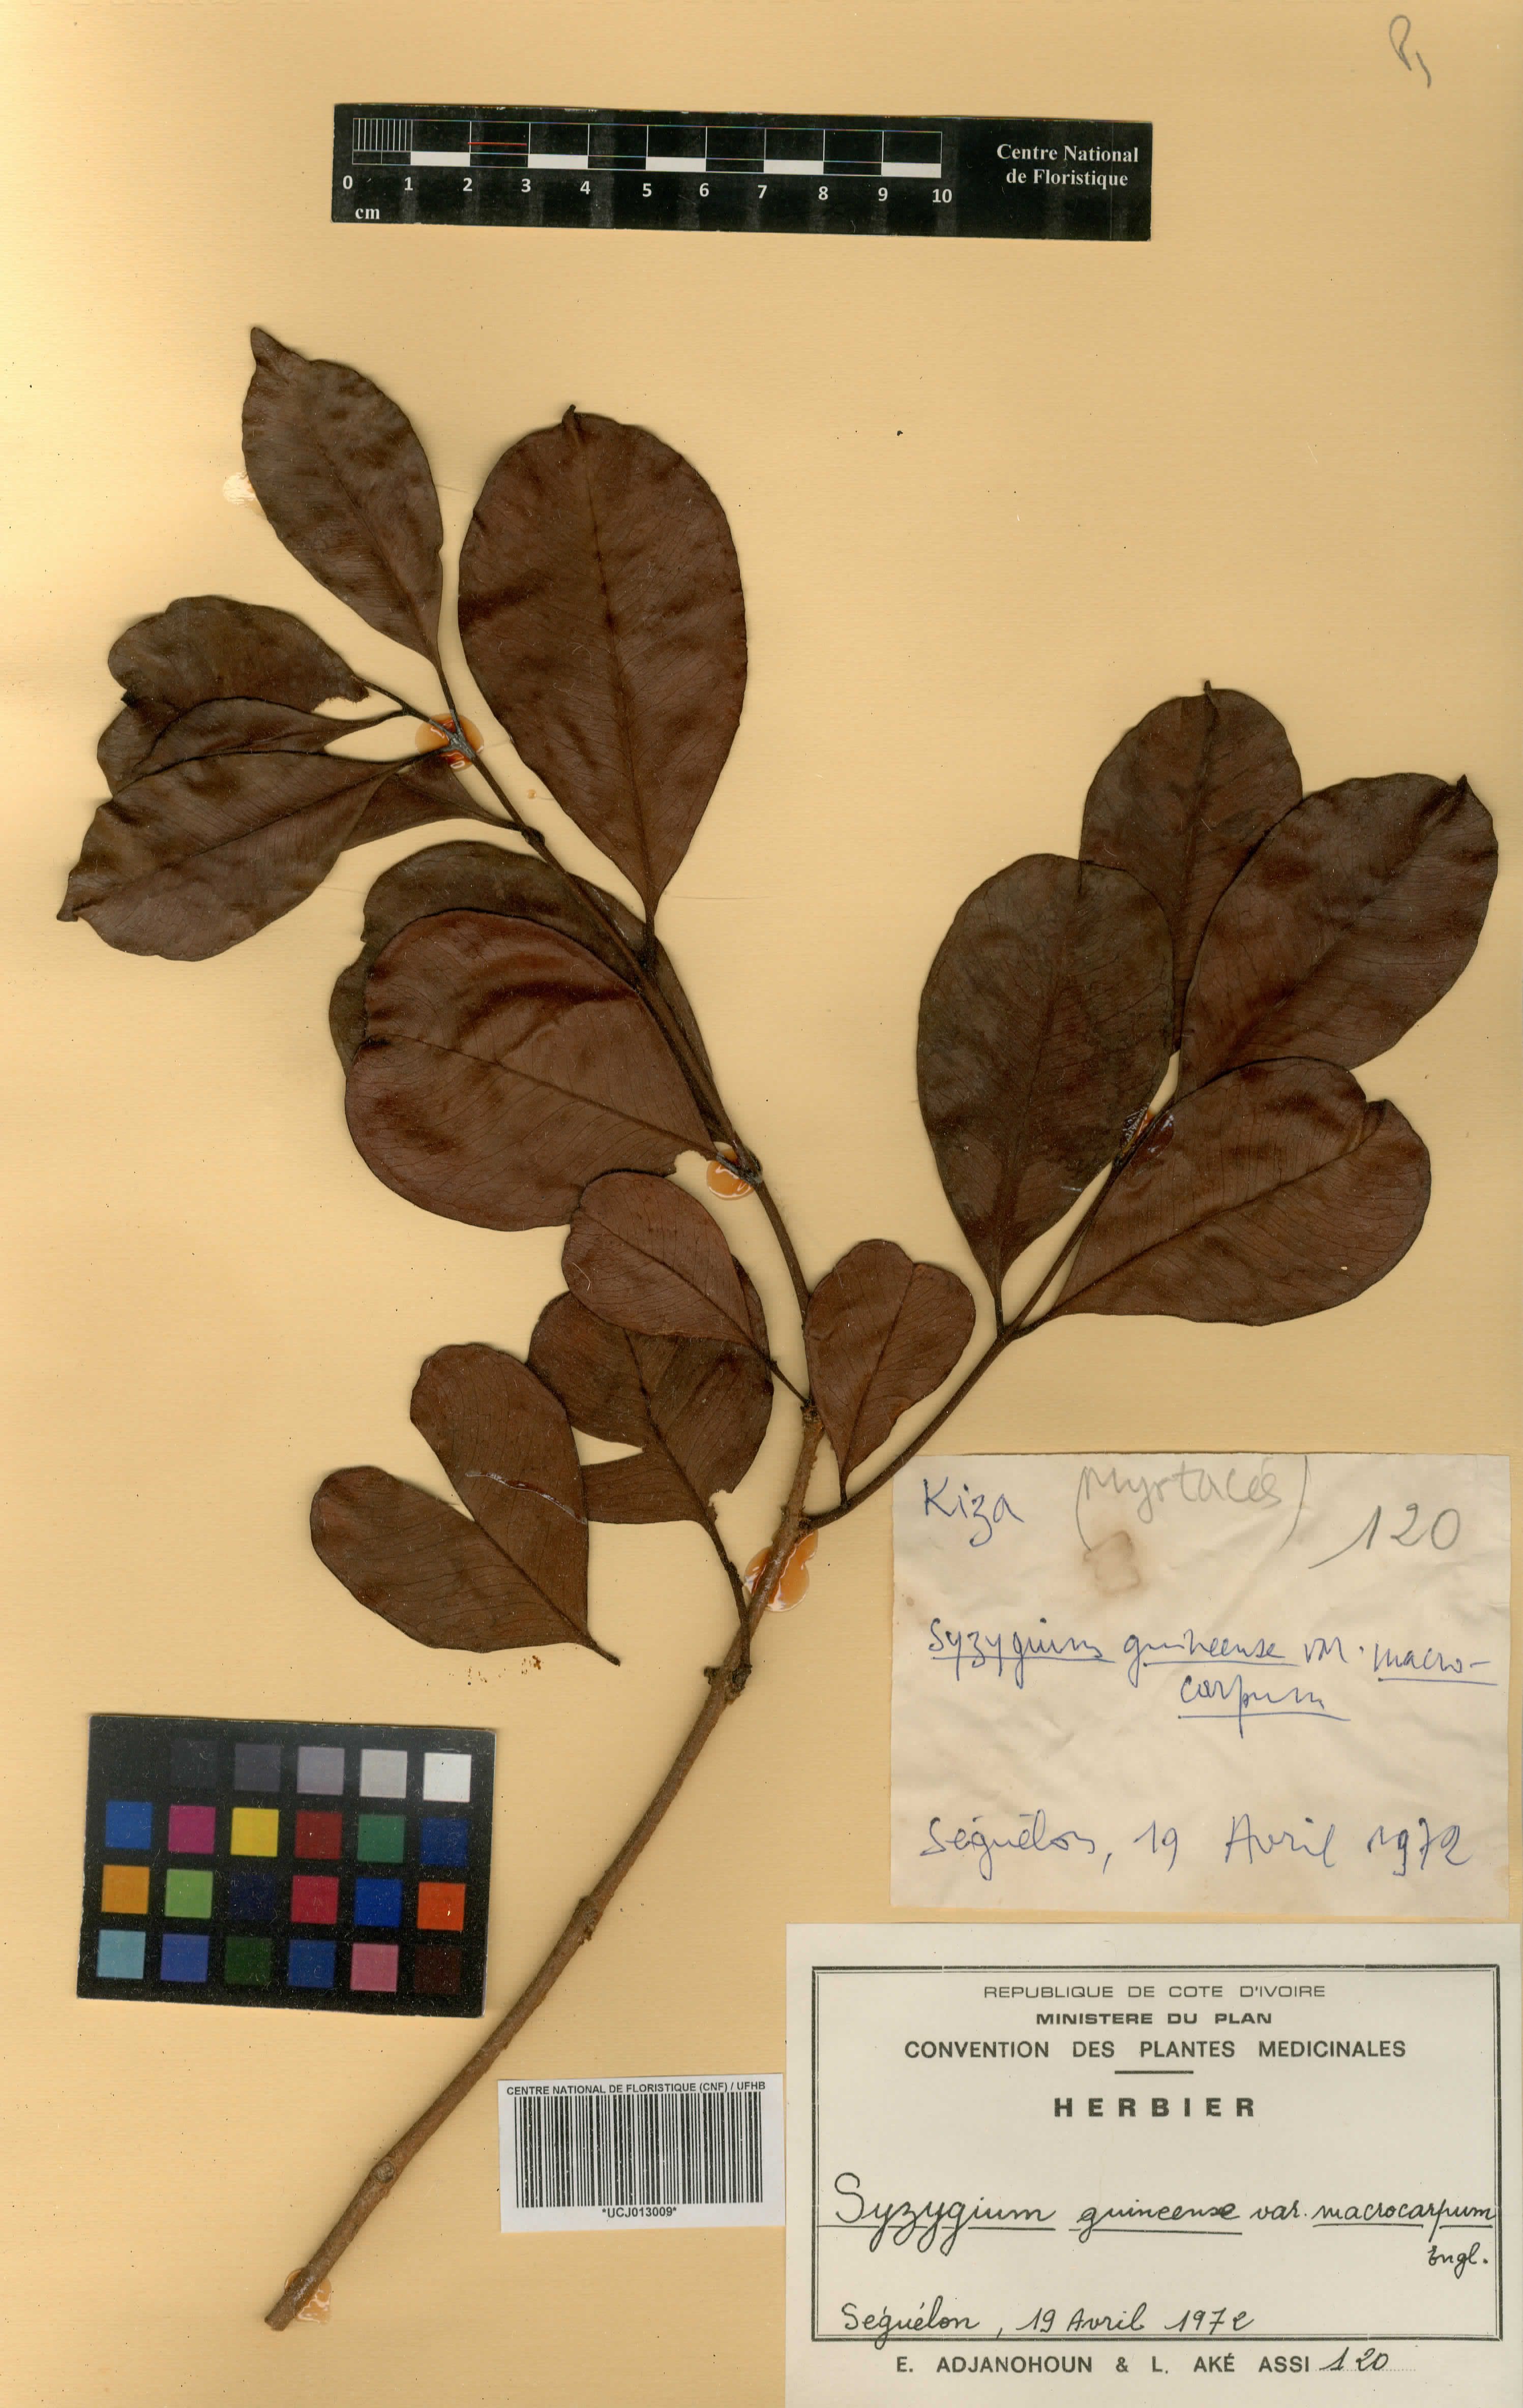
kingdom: Plantae
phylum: Tracheophyta
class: Magnoliopsida
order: Myrtales
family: Myrtaceae
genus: Syzygium
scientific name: Syzygium guineense
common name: Water-pear
